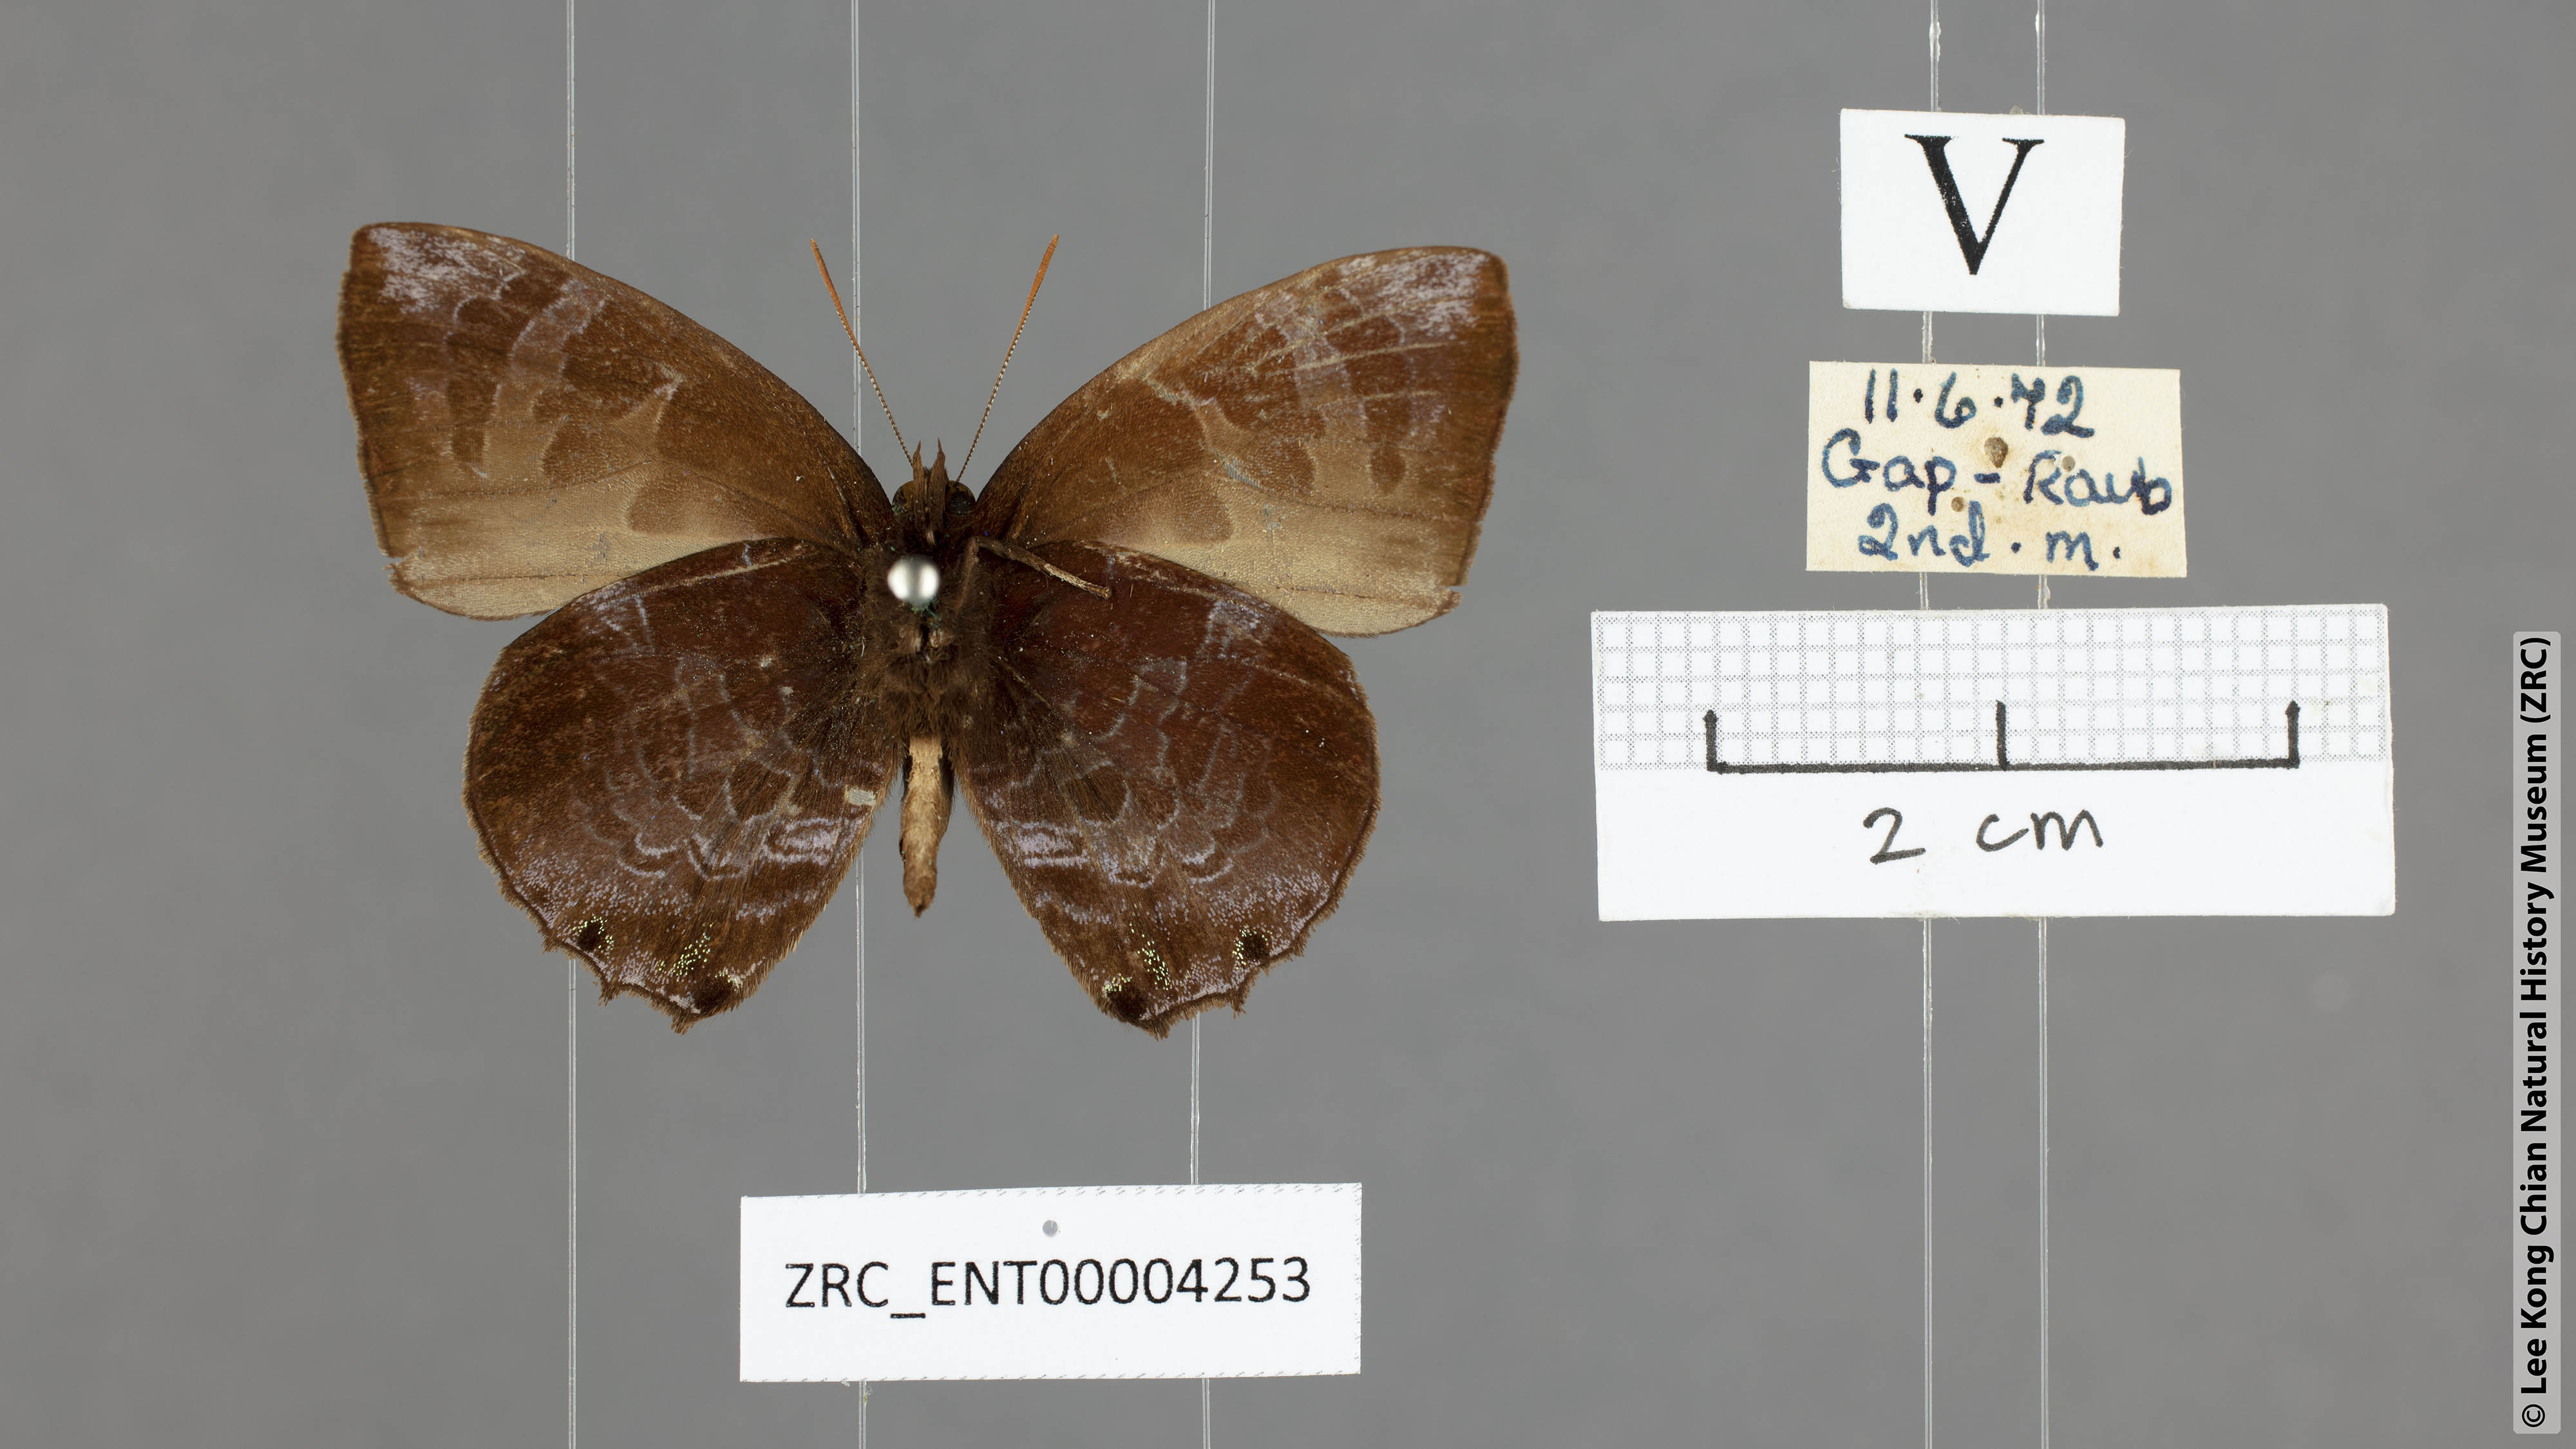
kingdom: Animalia
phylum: Arthropoda
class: Insecta
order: Lepidoptera
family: Lycaenidae
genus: Flos
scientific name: Flos
